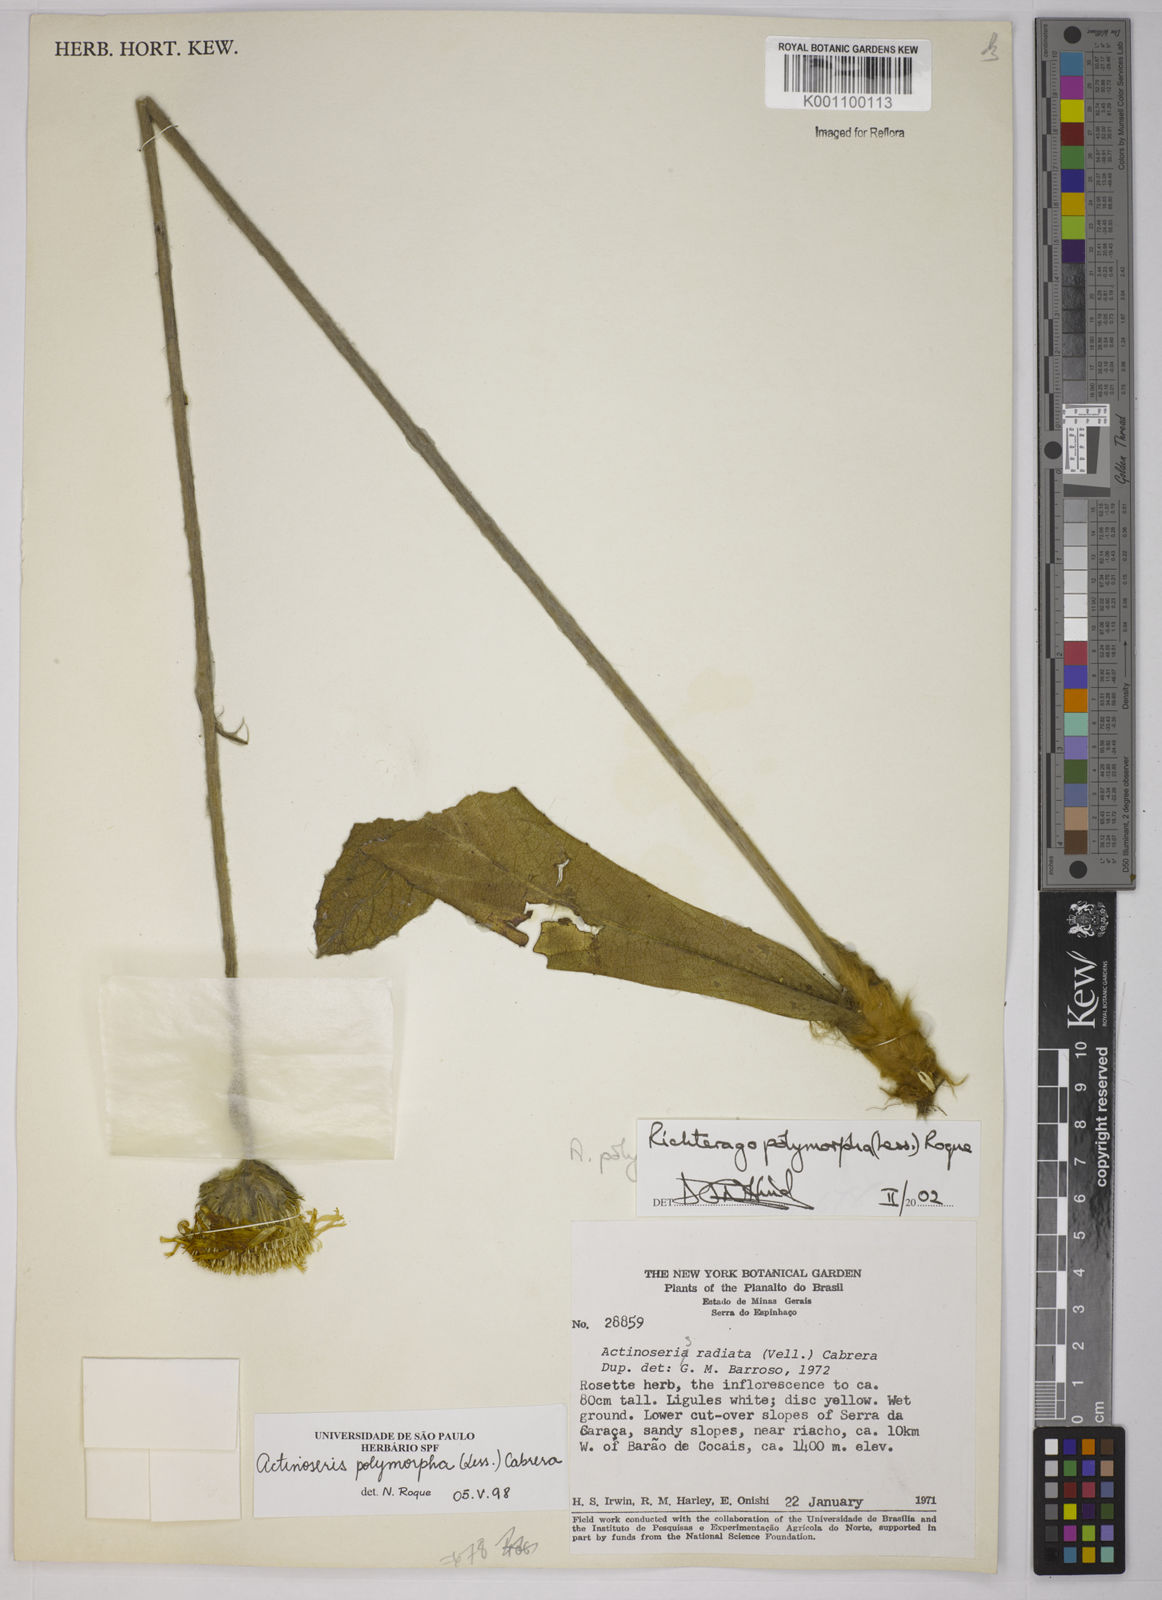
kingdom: Plantae
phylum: Tracheophyta
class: Magnoliopsida
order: Asterales
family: Asteraceae
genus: Richterago
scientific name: Richterago polymorpha
